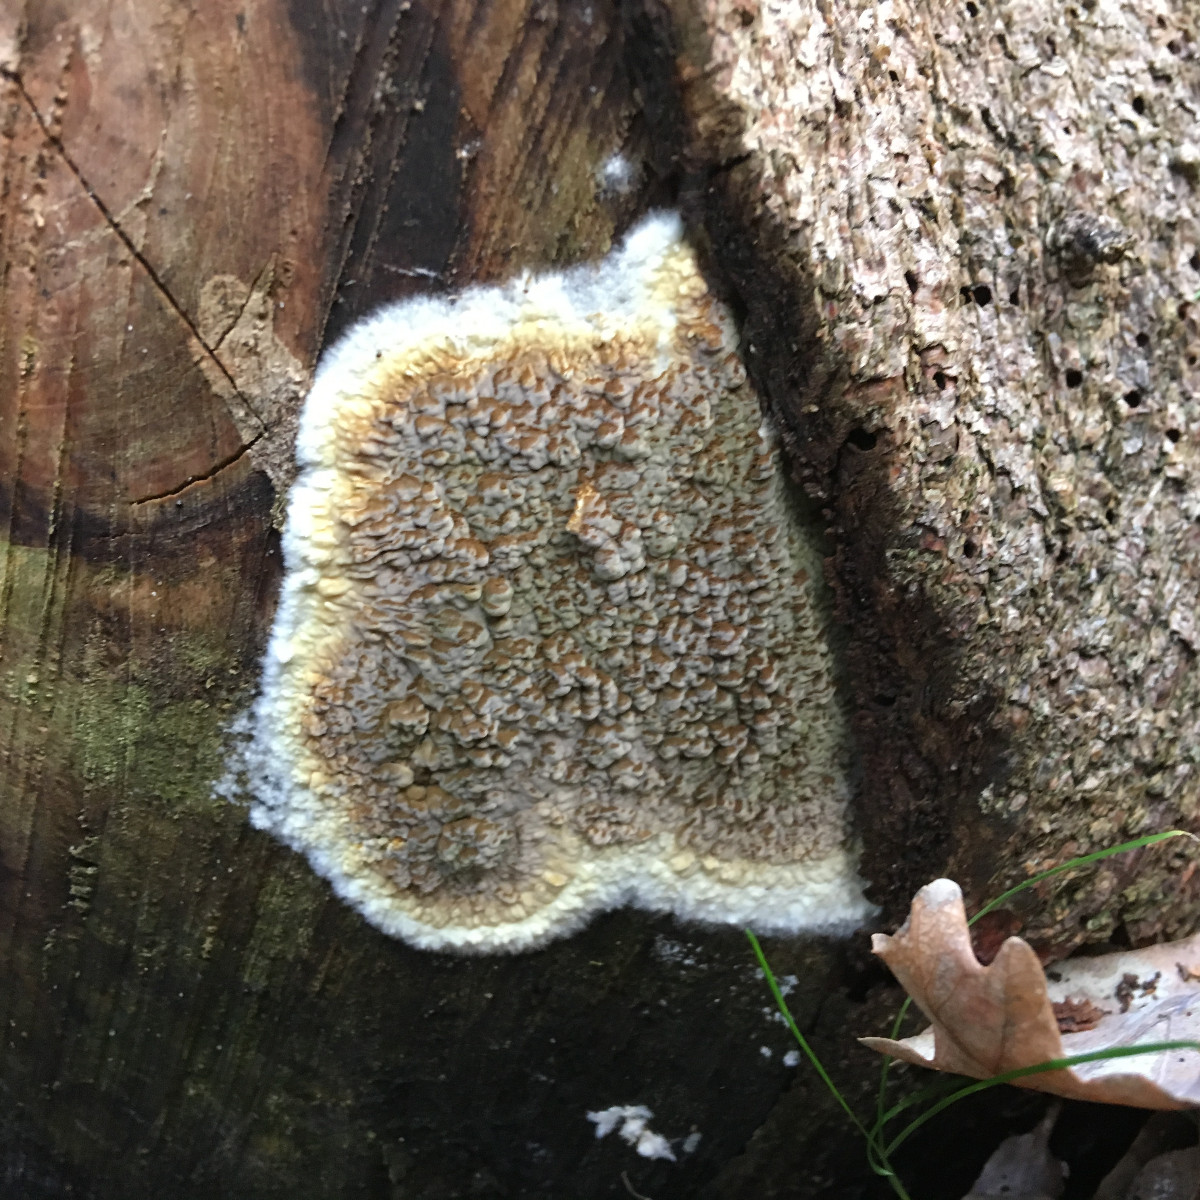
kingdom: Fungi
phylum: Basidiomycota
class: Agaricomycetes
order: Boletales
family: Coniophoraceae
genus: Coniophora
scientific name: Coniophora puteana
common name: gul tømmersvamp
